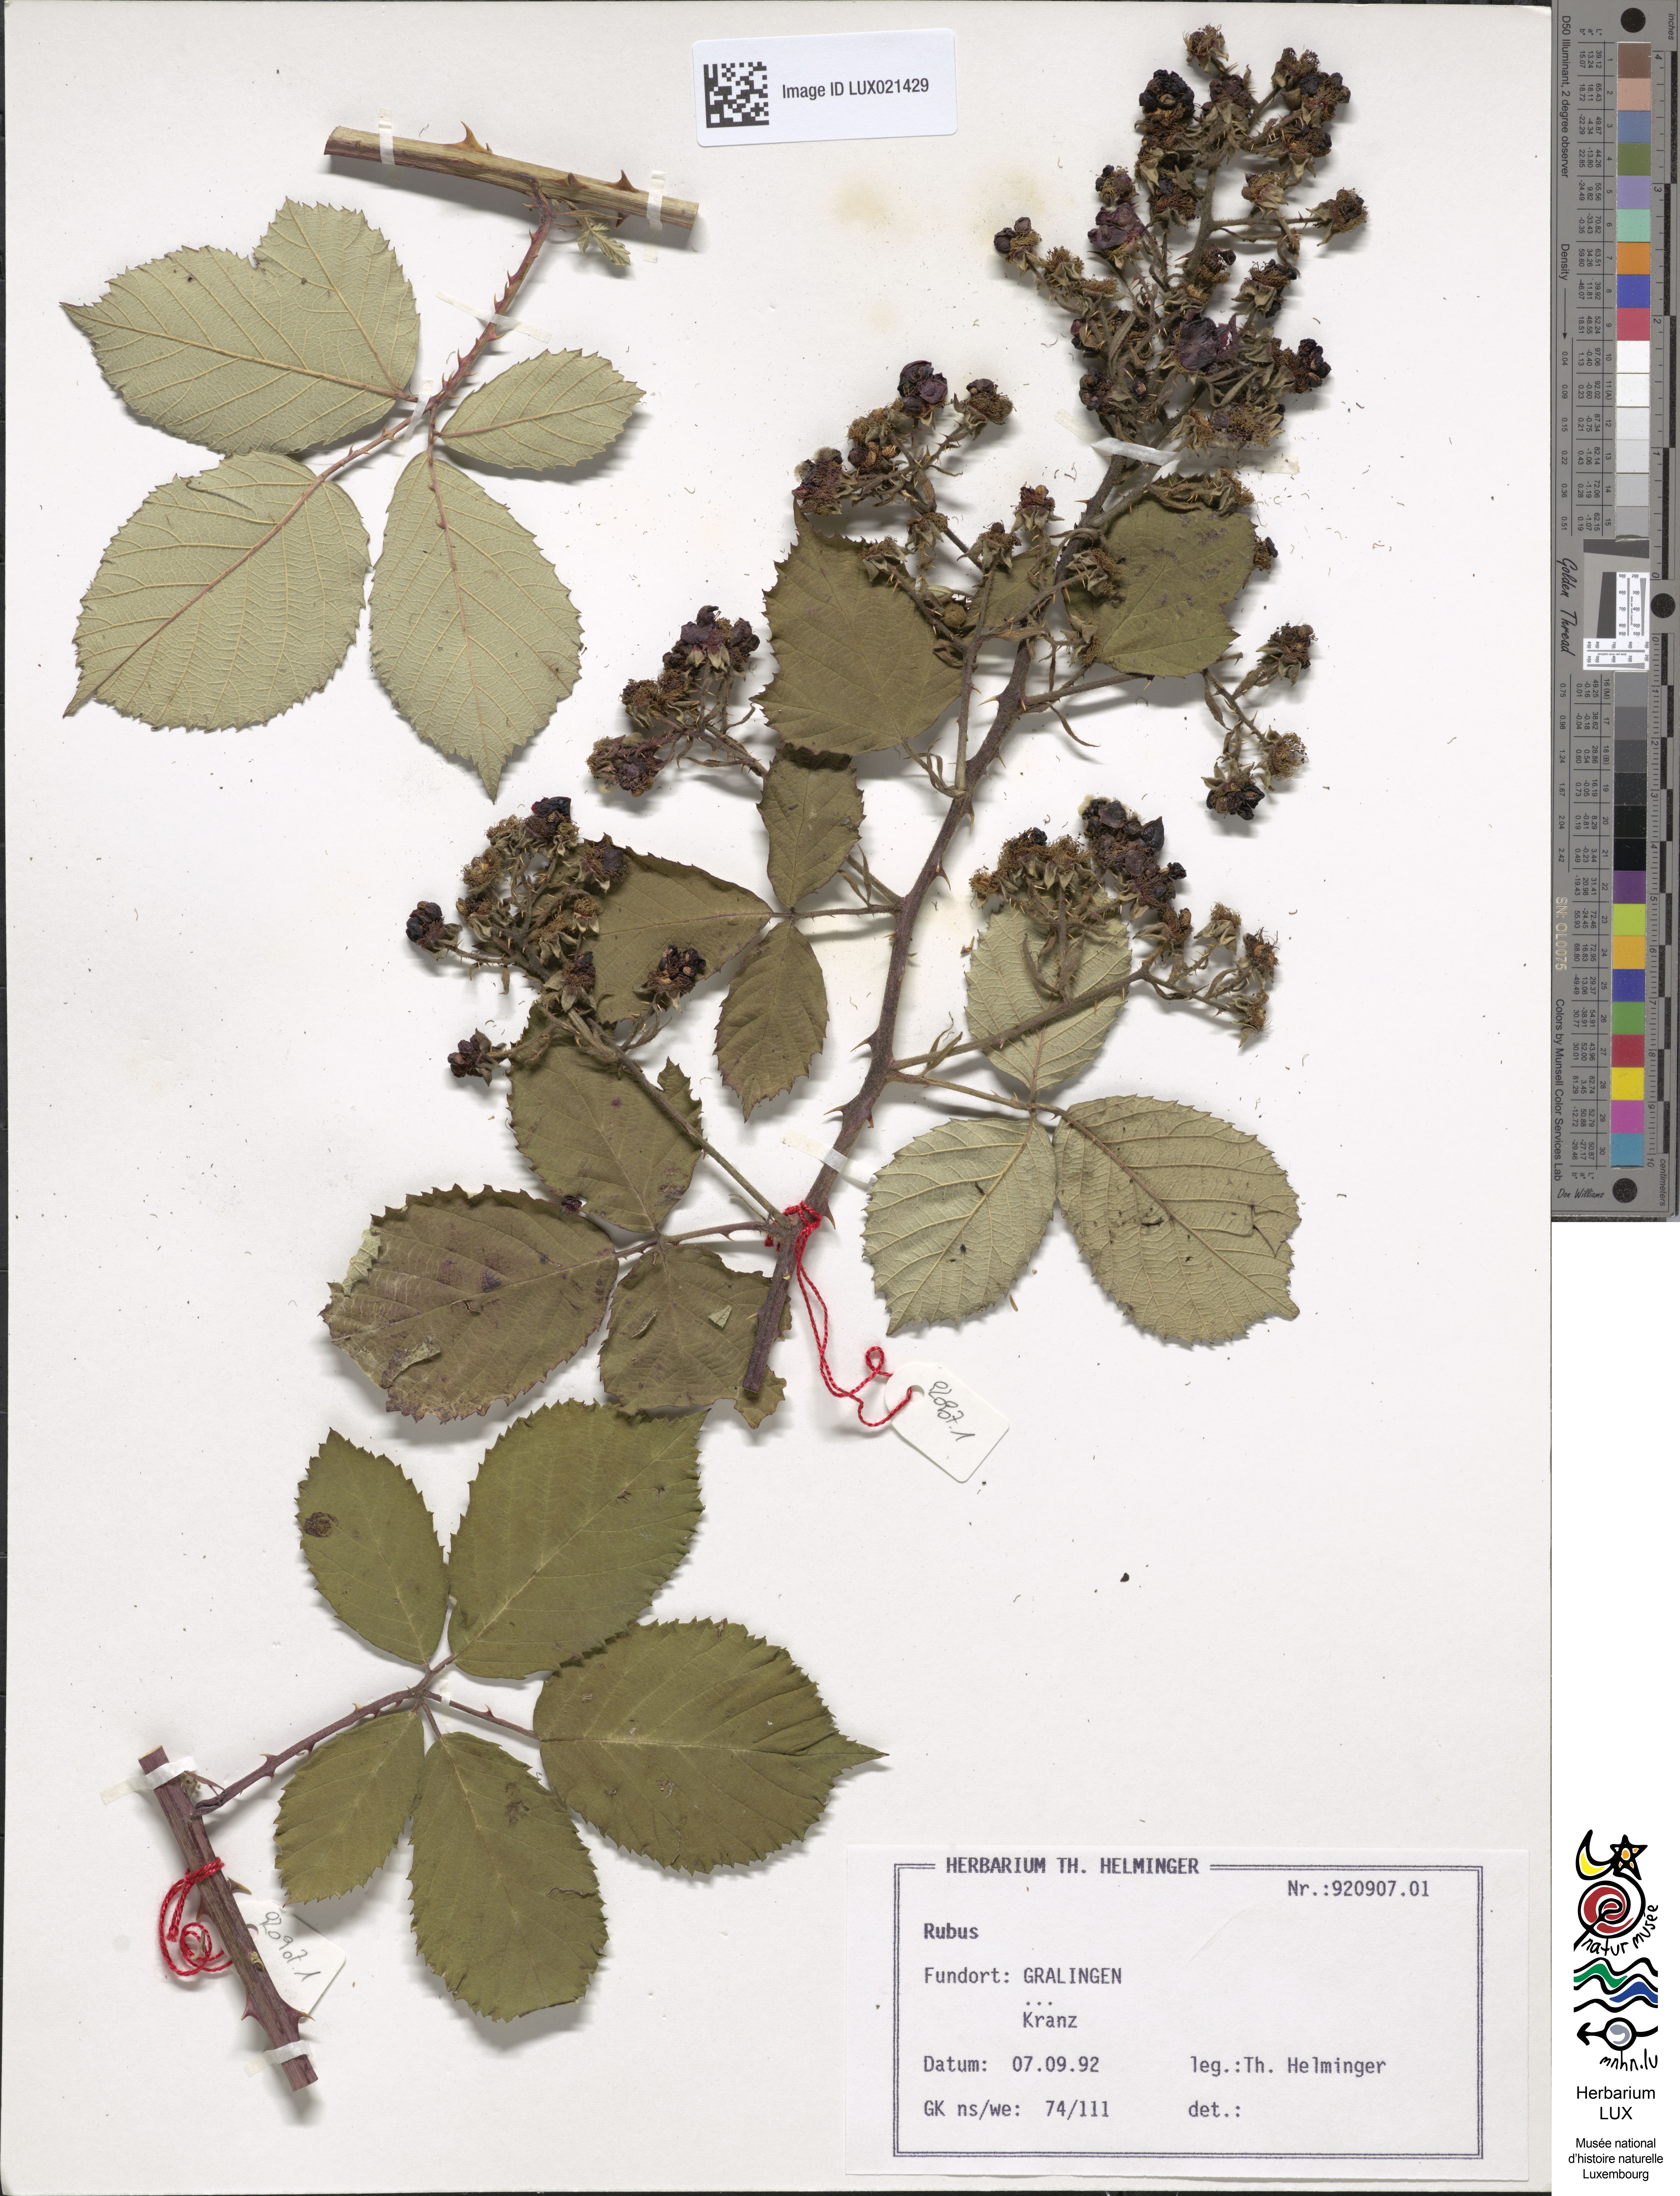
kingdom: Plantae
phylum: Tracheophyta
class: Magnoliopsida
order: Rosales
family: Rosaceae
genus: Rubus
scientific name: Rubus
